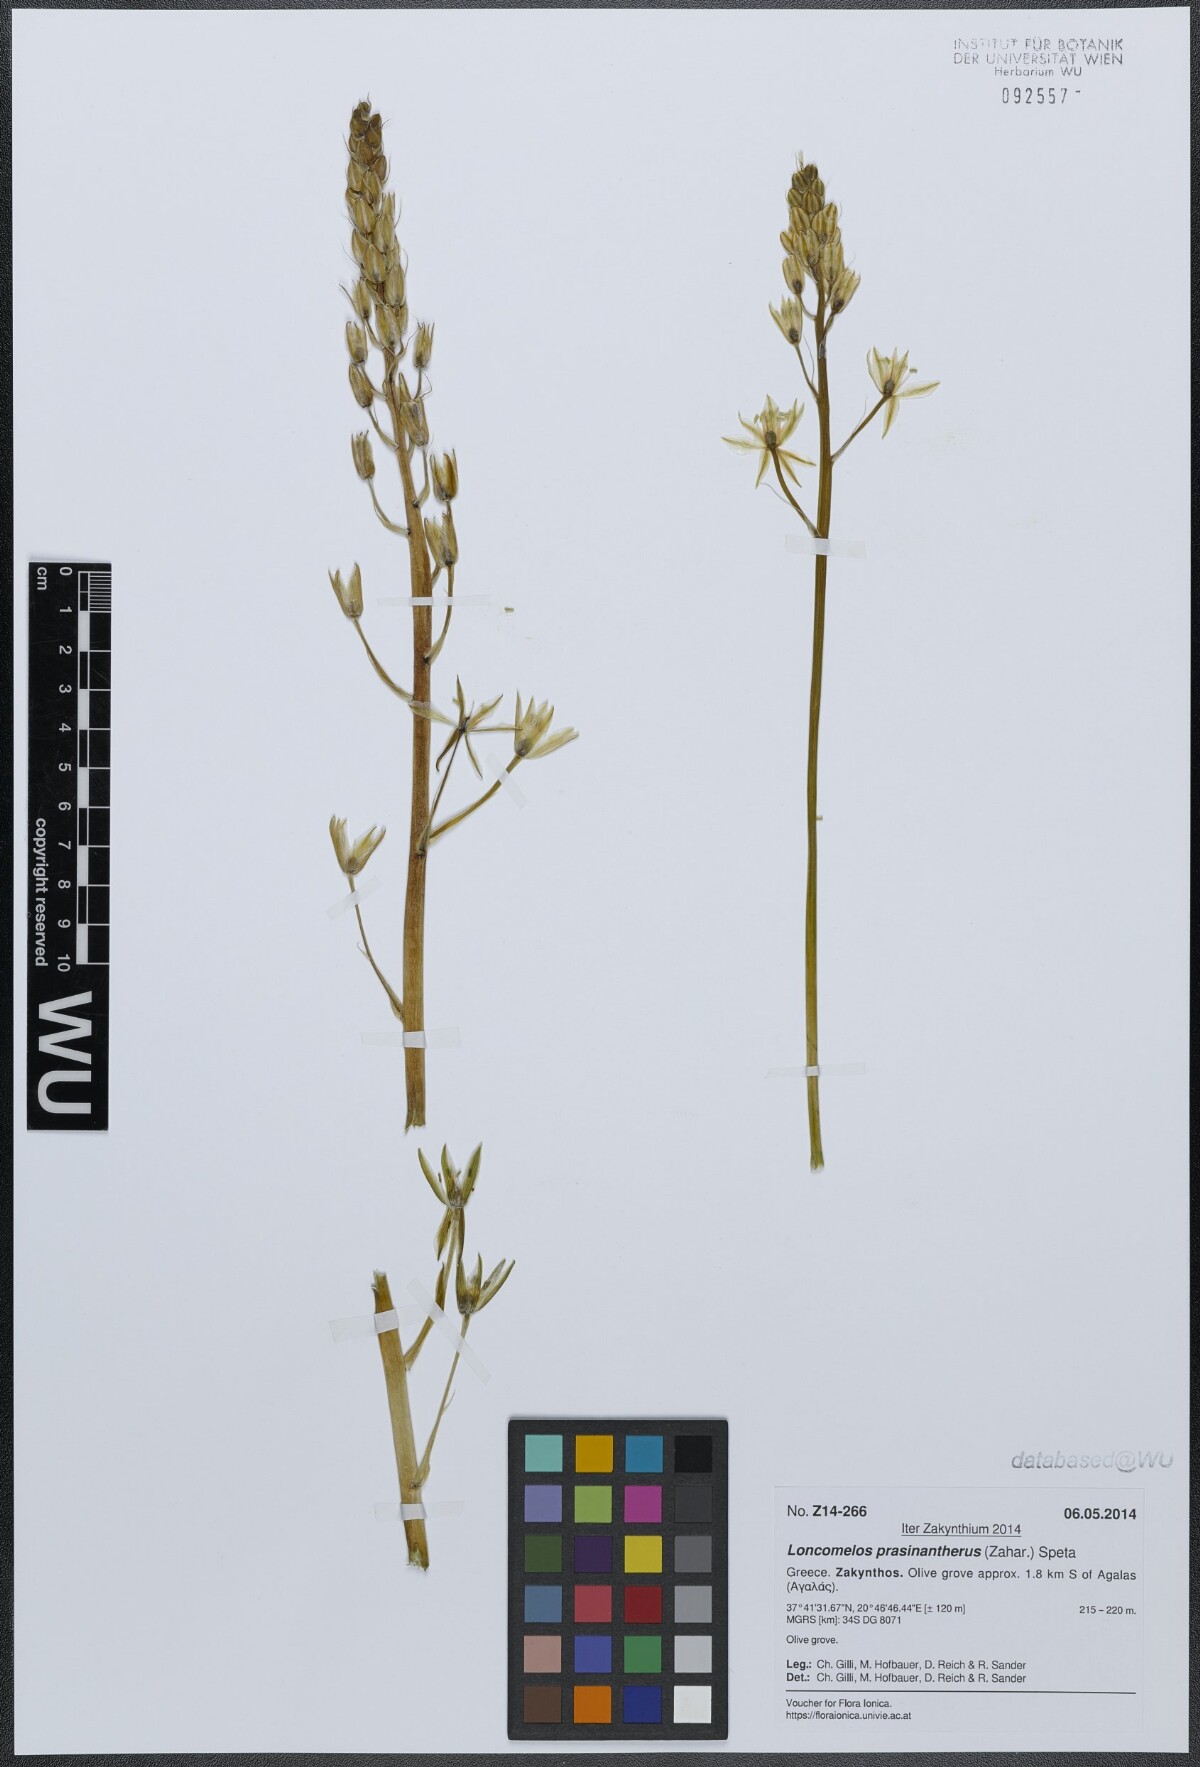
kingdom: Plantae
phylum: Tracheophyta
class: Liliopsida
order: Asparagales
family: Asparagaceae
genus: Ornithogalum
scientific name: Ornithogalum prasinantherum
